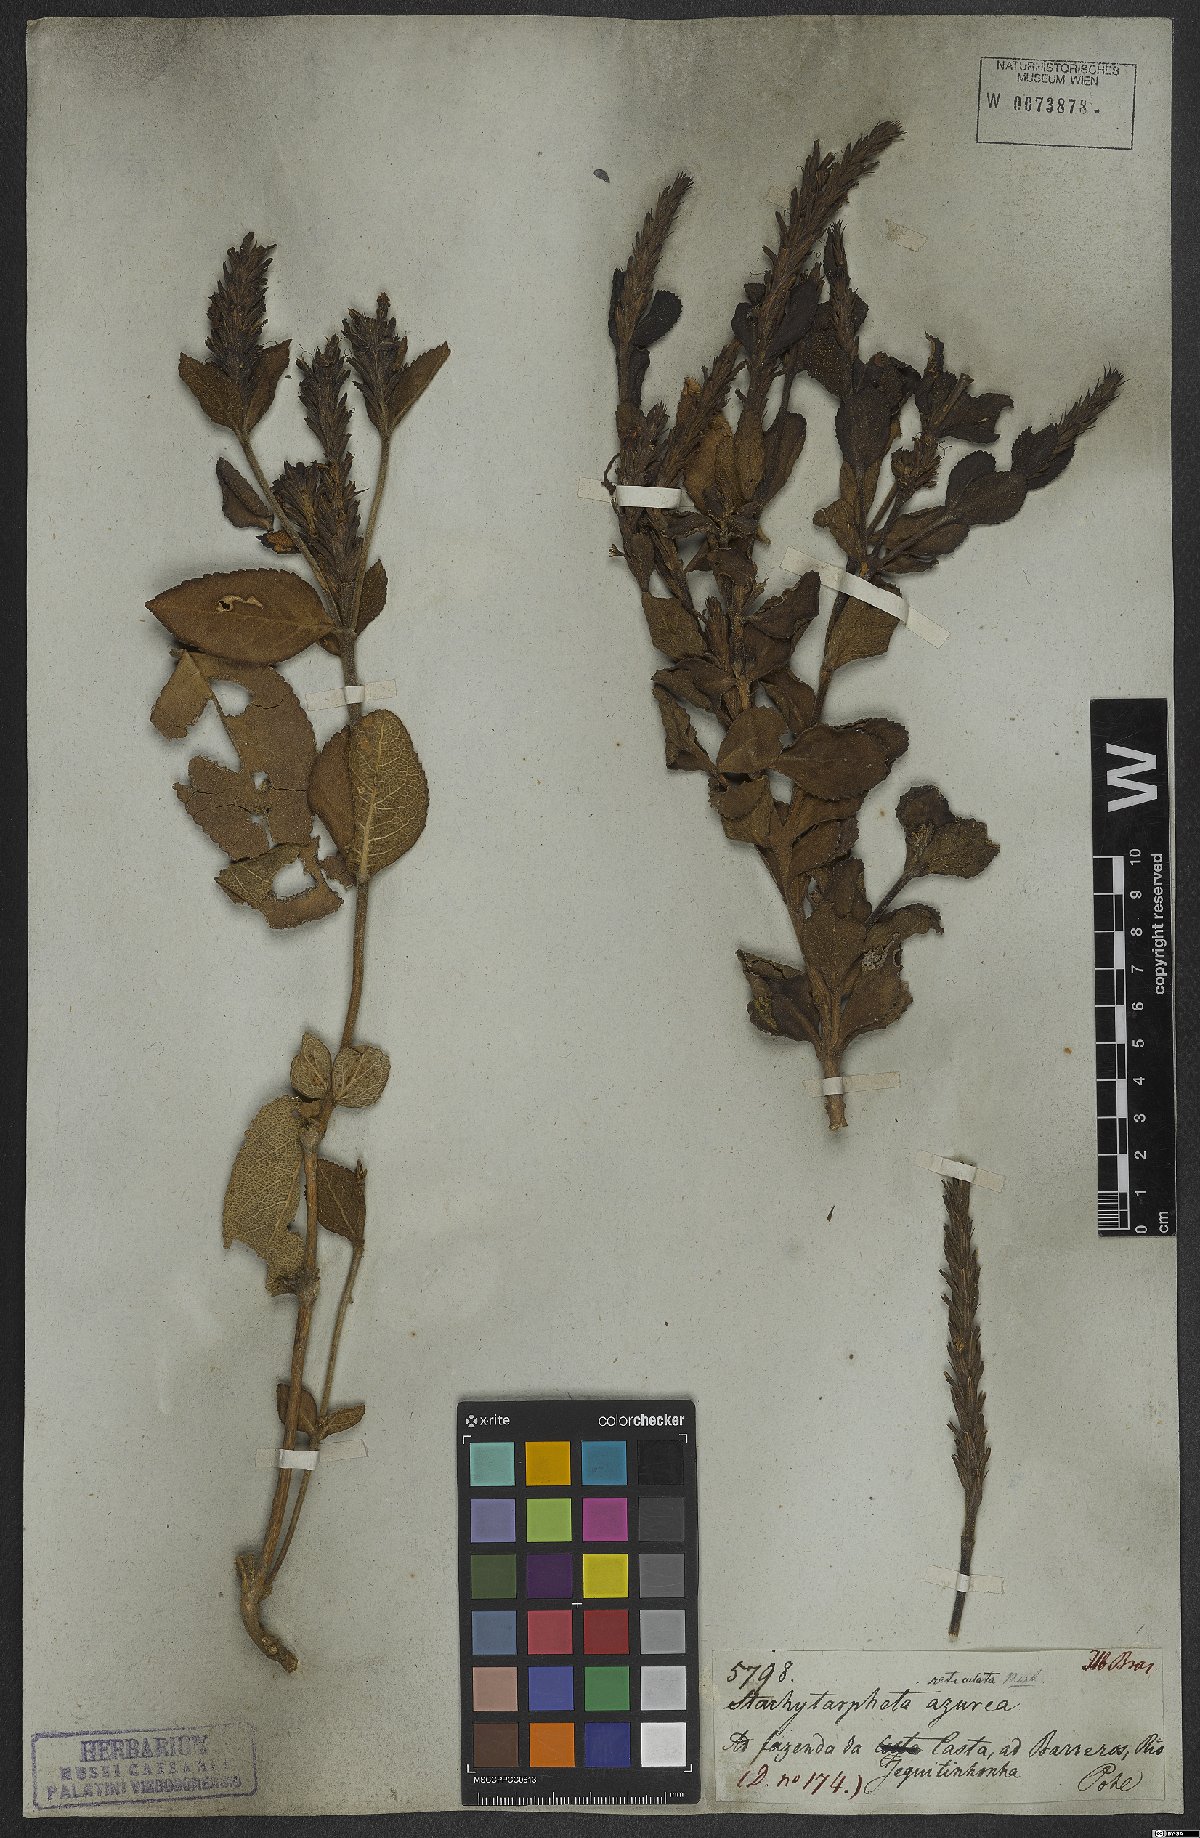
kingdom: Plantae
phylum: Tracheophyta
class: Magnoliopsida
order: Lamiales
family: Verbenaceae
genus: Stachytarpheta
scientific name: Stachytarpheta reticulata
